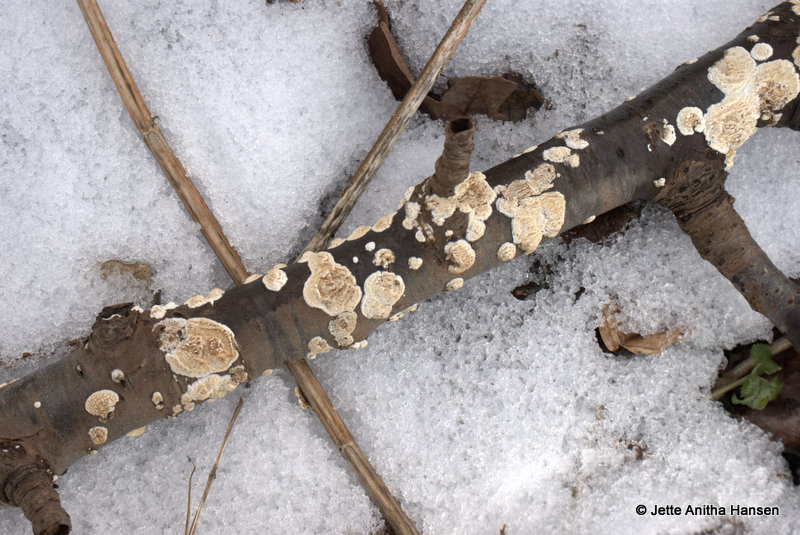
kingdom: Fungi
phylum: Basidiomycota
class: Agaricomycetes
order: Hymenochaetales
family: Schizoporaceae
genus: Xylodon
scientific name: Xylodon radula
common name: grovtandet kalkskind
